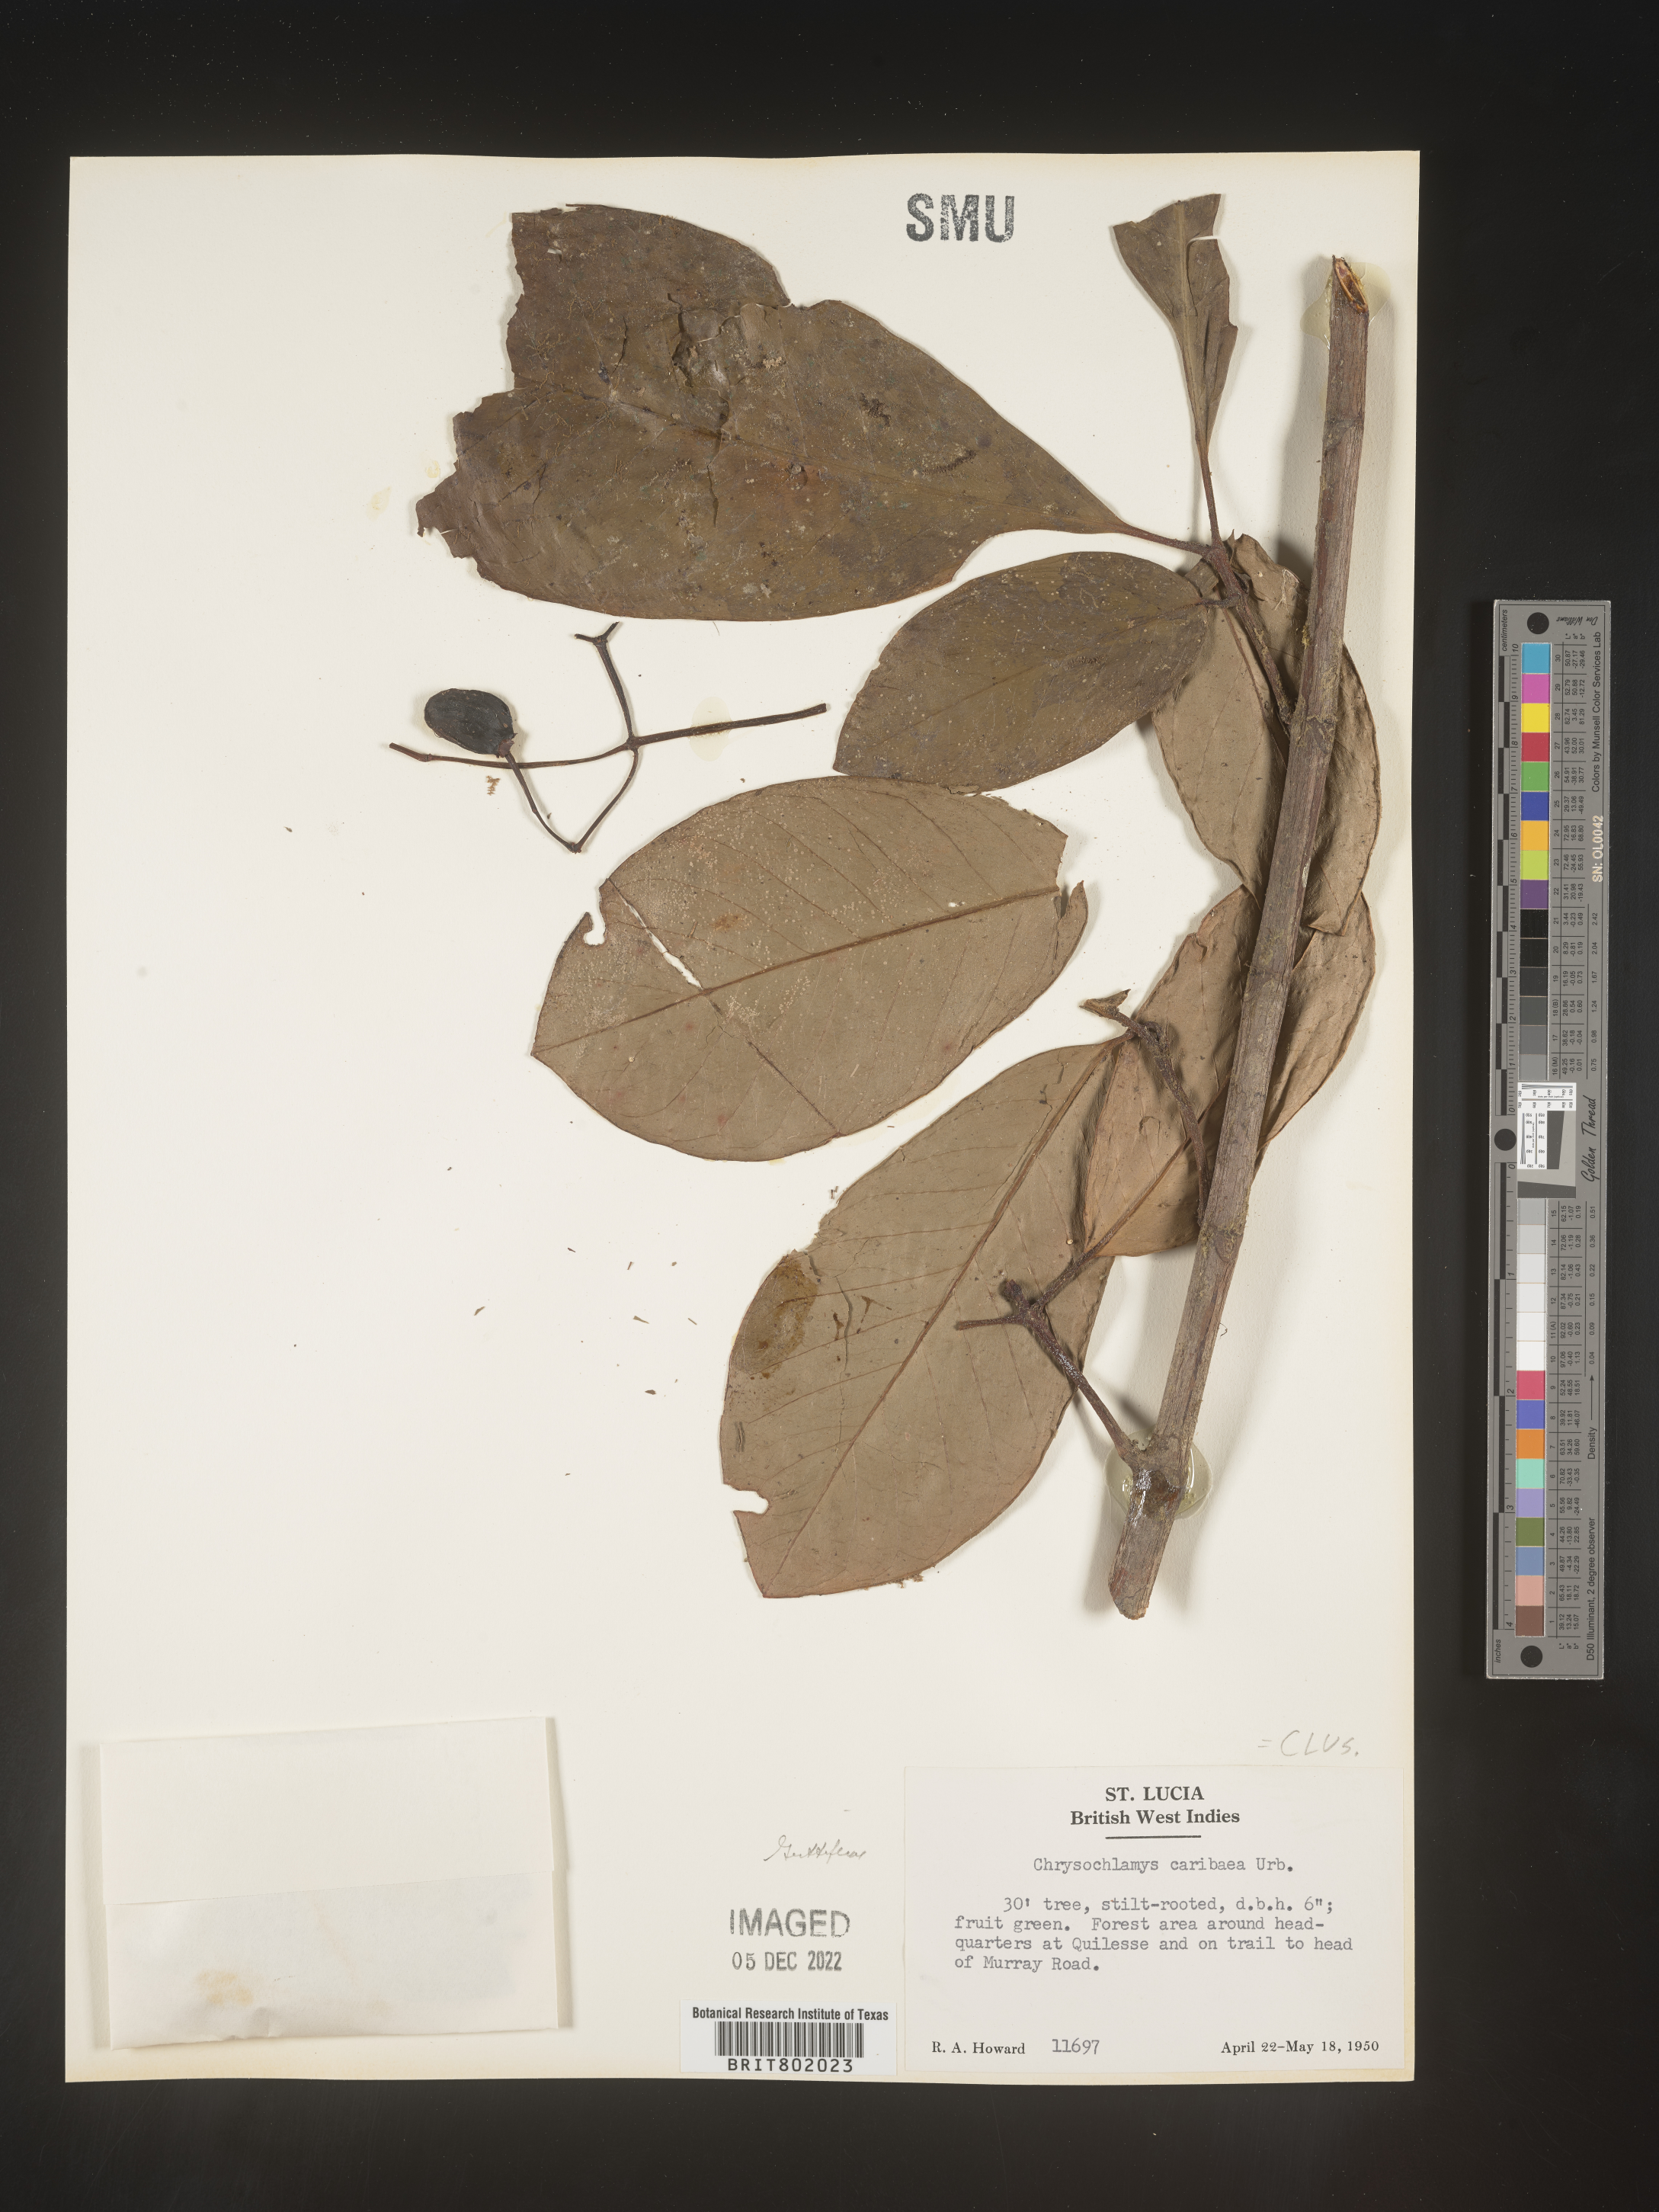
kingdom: Plantae
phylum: Tracheophyta
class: Magnoliopsida
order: Malpighiales
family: Clusiaceae
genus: Chrysochlamys
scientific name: Chrysochlamys
